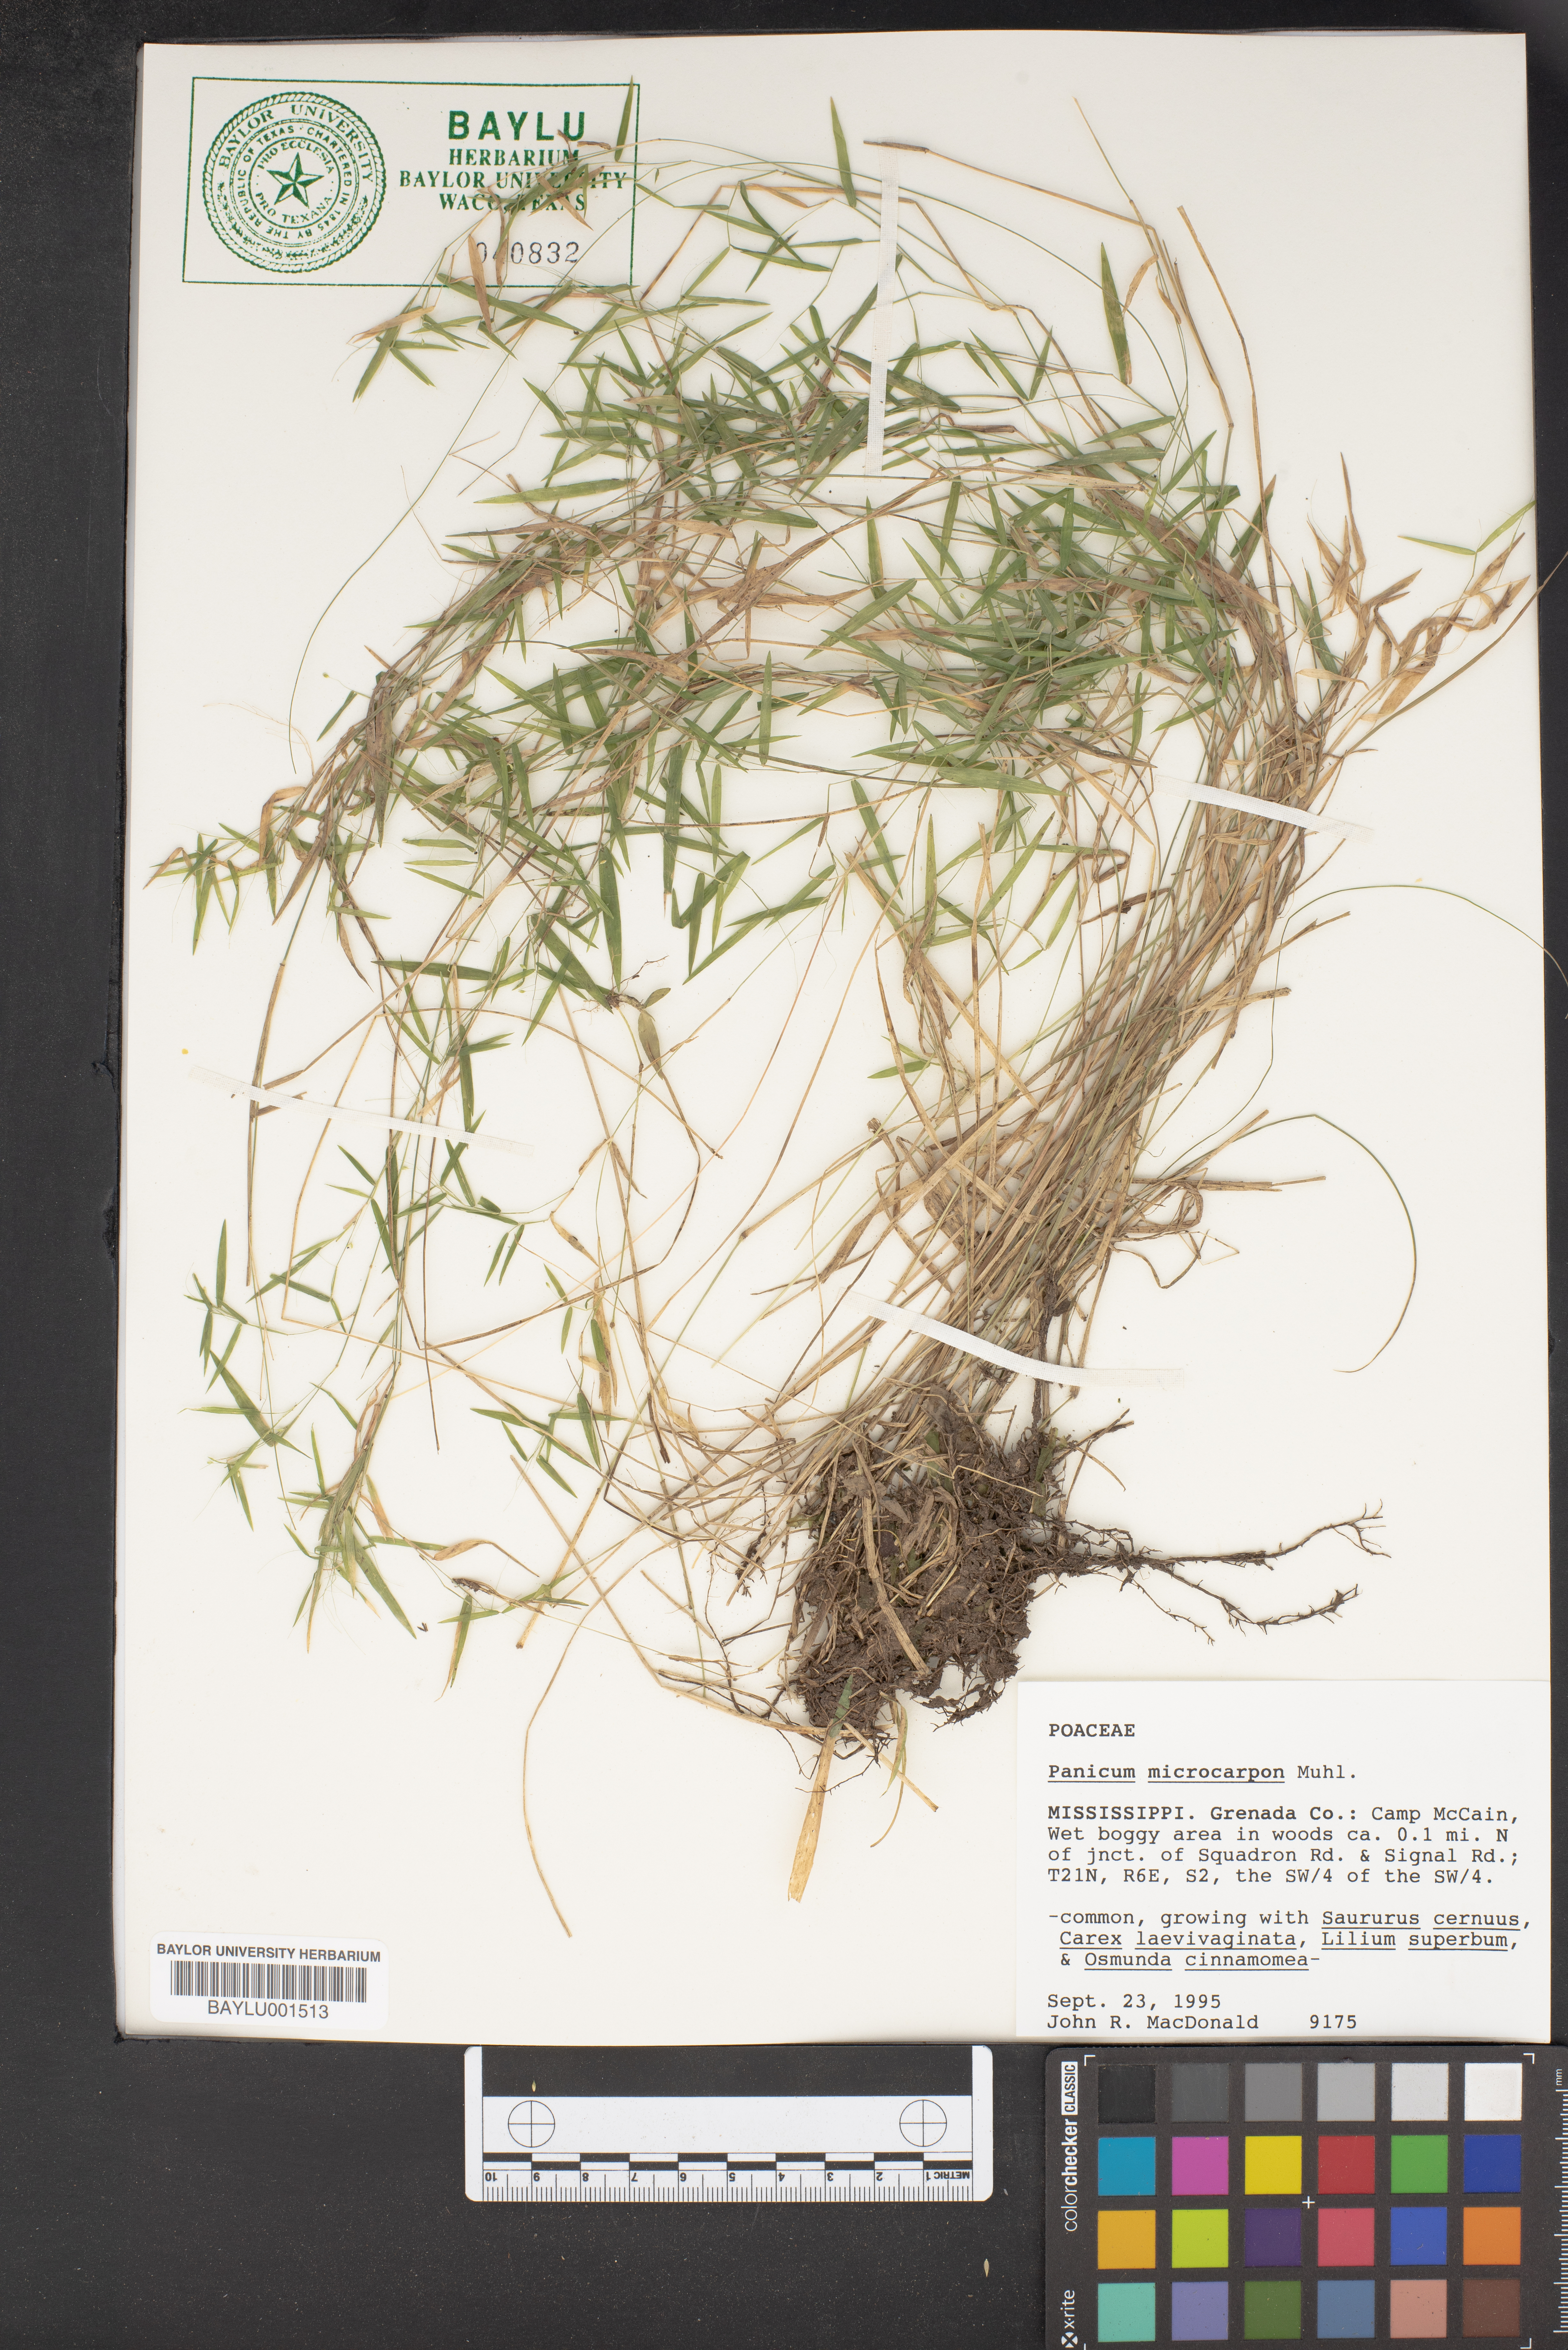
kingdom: Plantae
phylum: Tracheophyta
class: Liliopsida
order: Poales
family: Poaceae
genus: Dichanthelium
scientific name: Dichanthelium polyanthes
